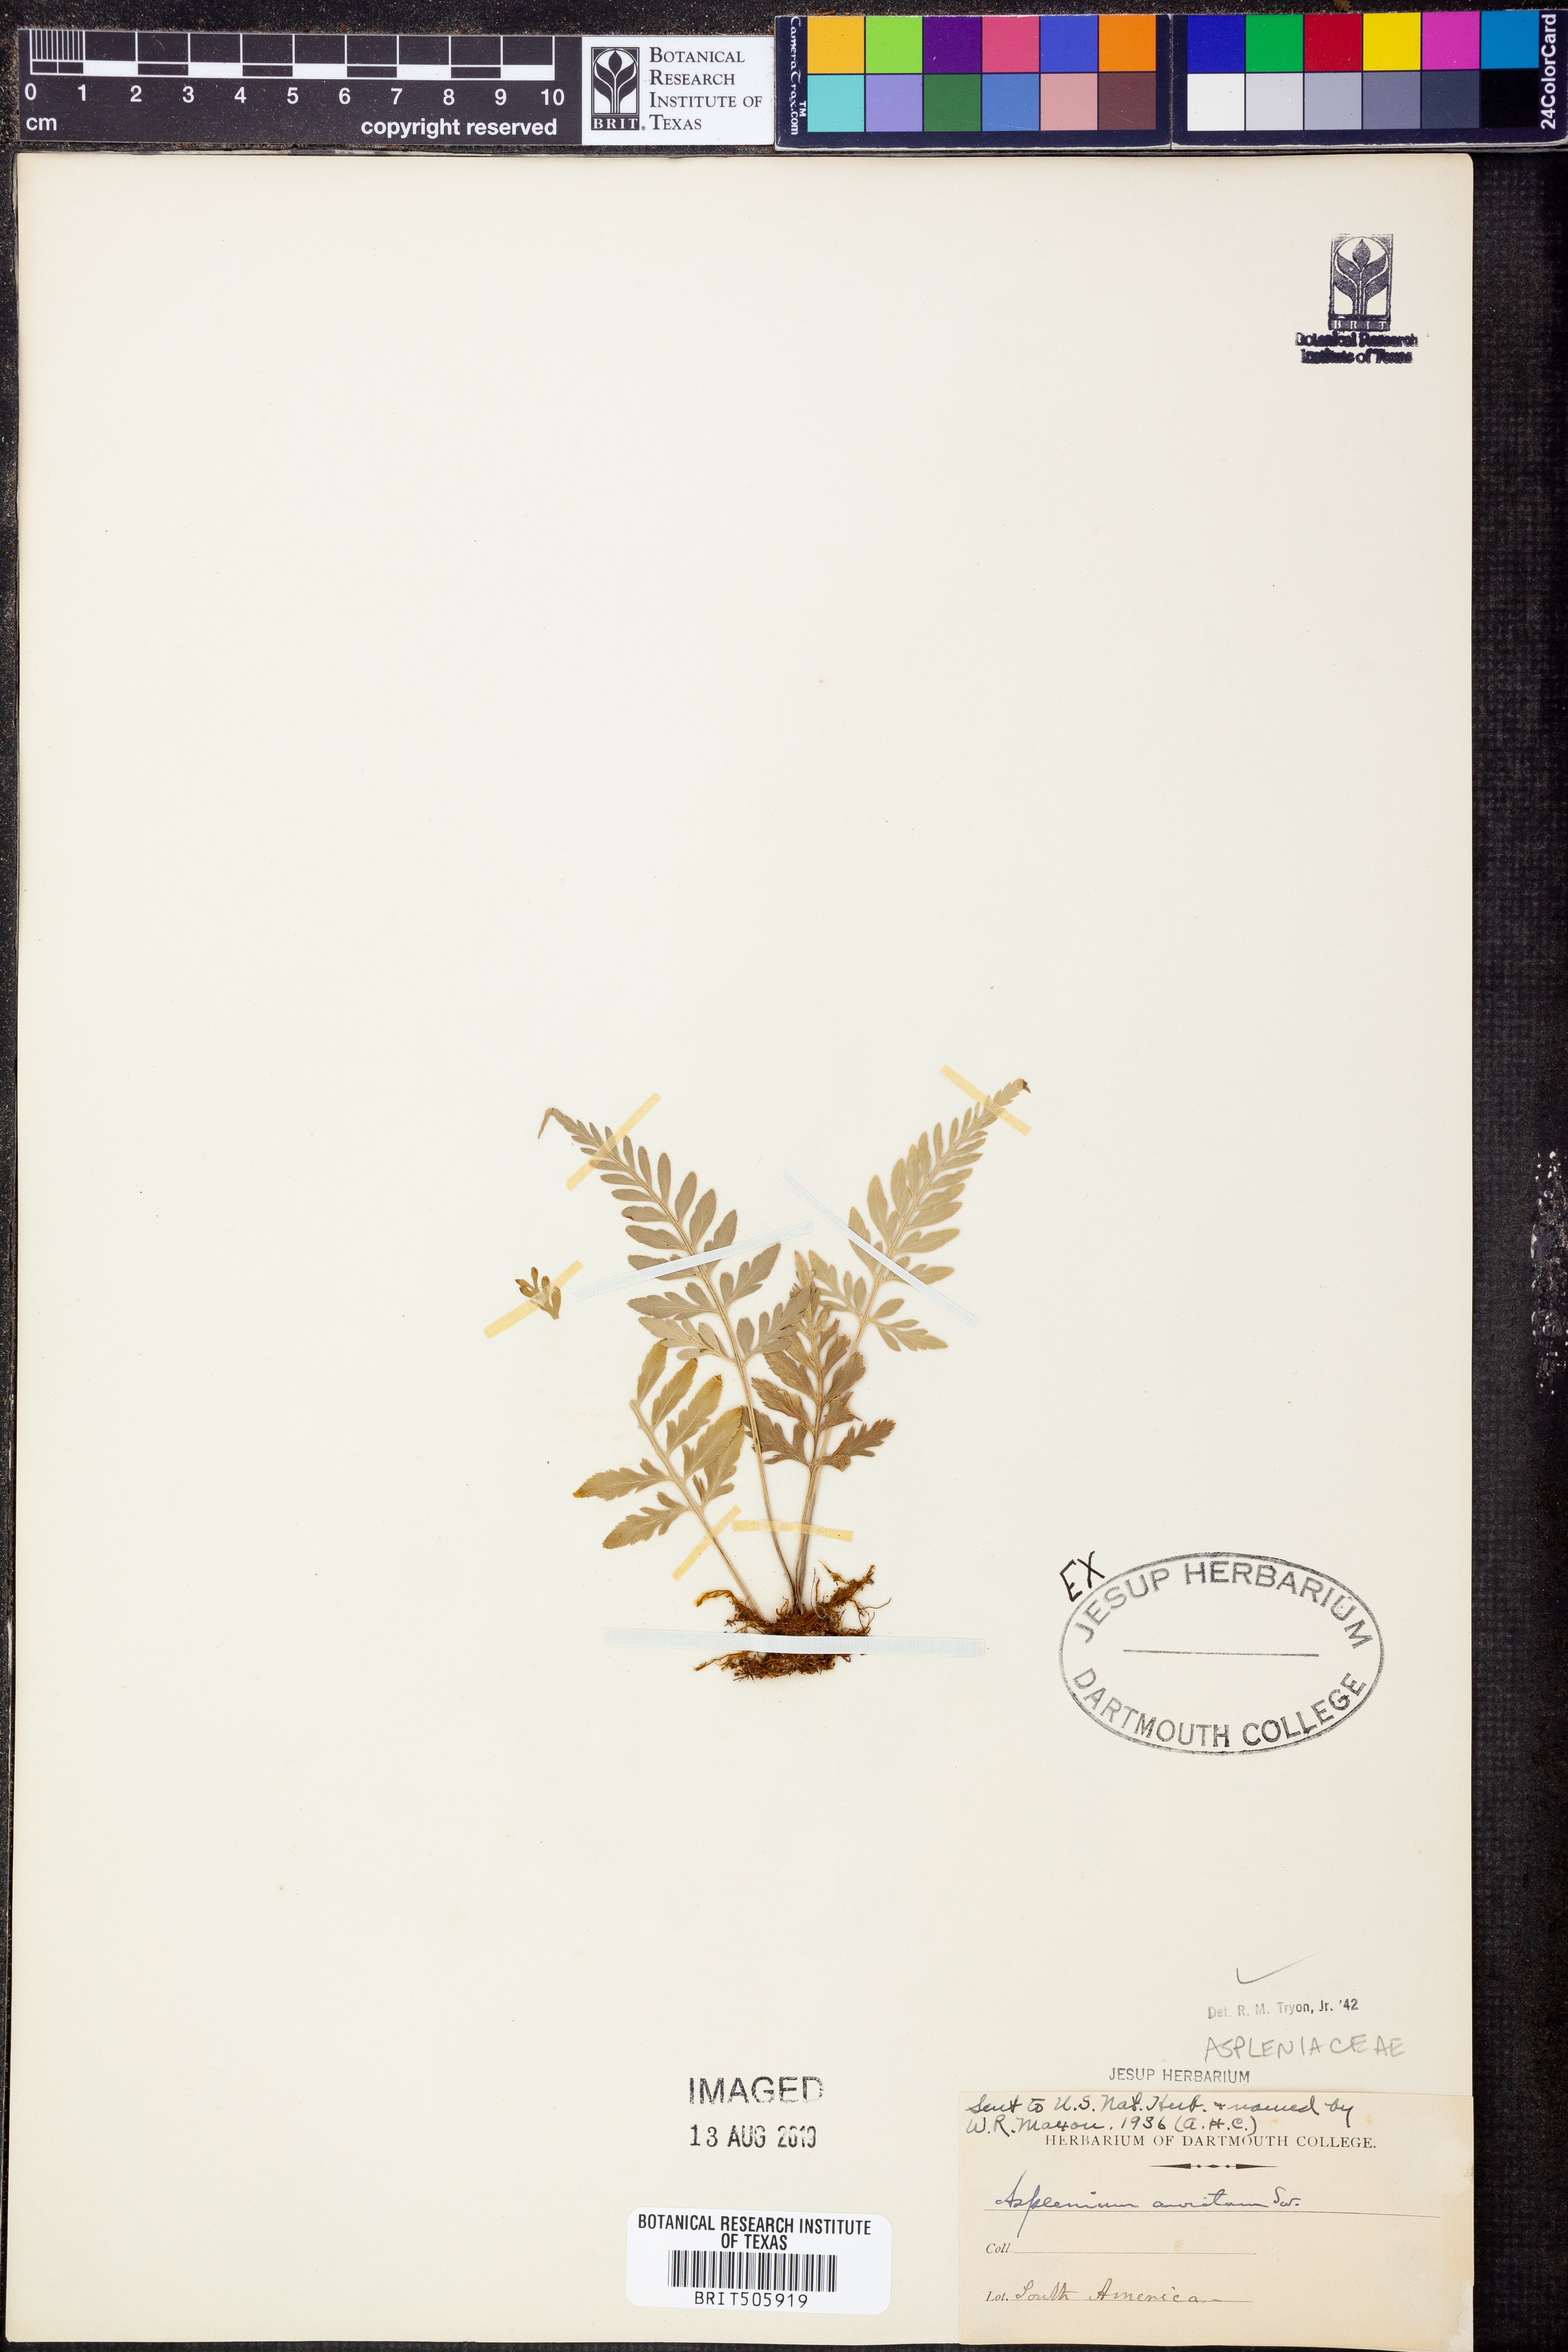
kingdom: Plantae
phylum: Tracheophyta
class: Polypodiopsida
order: Polypodiales
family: Aspleniaceae
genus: Asplenium
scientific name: Asplenium bipartitum
